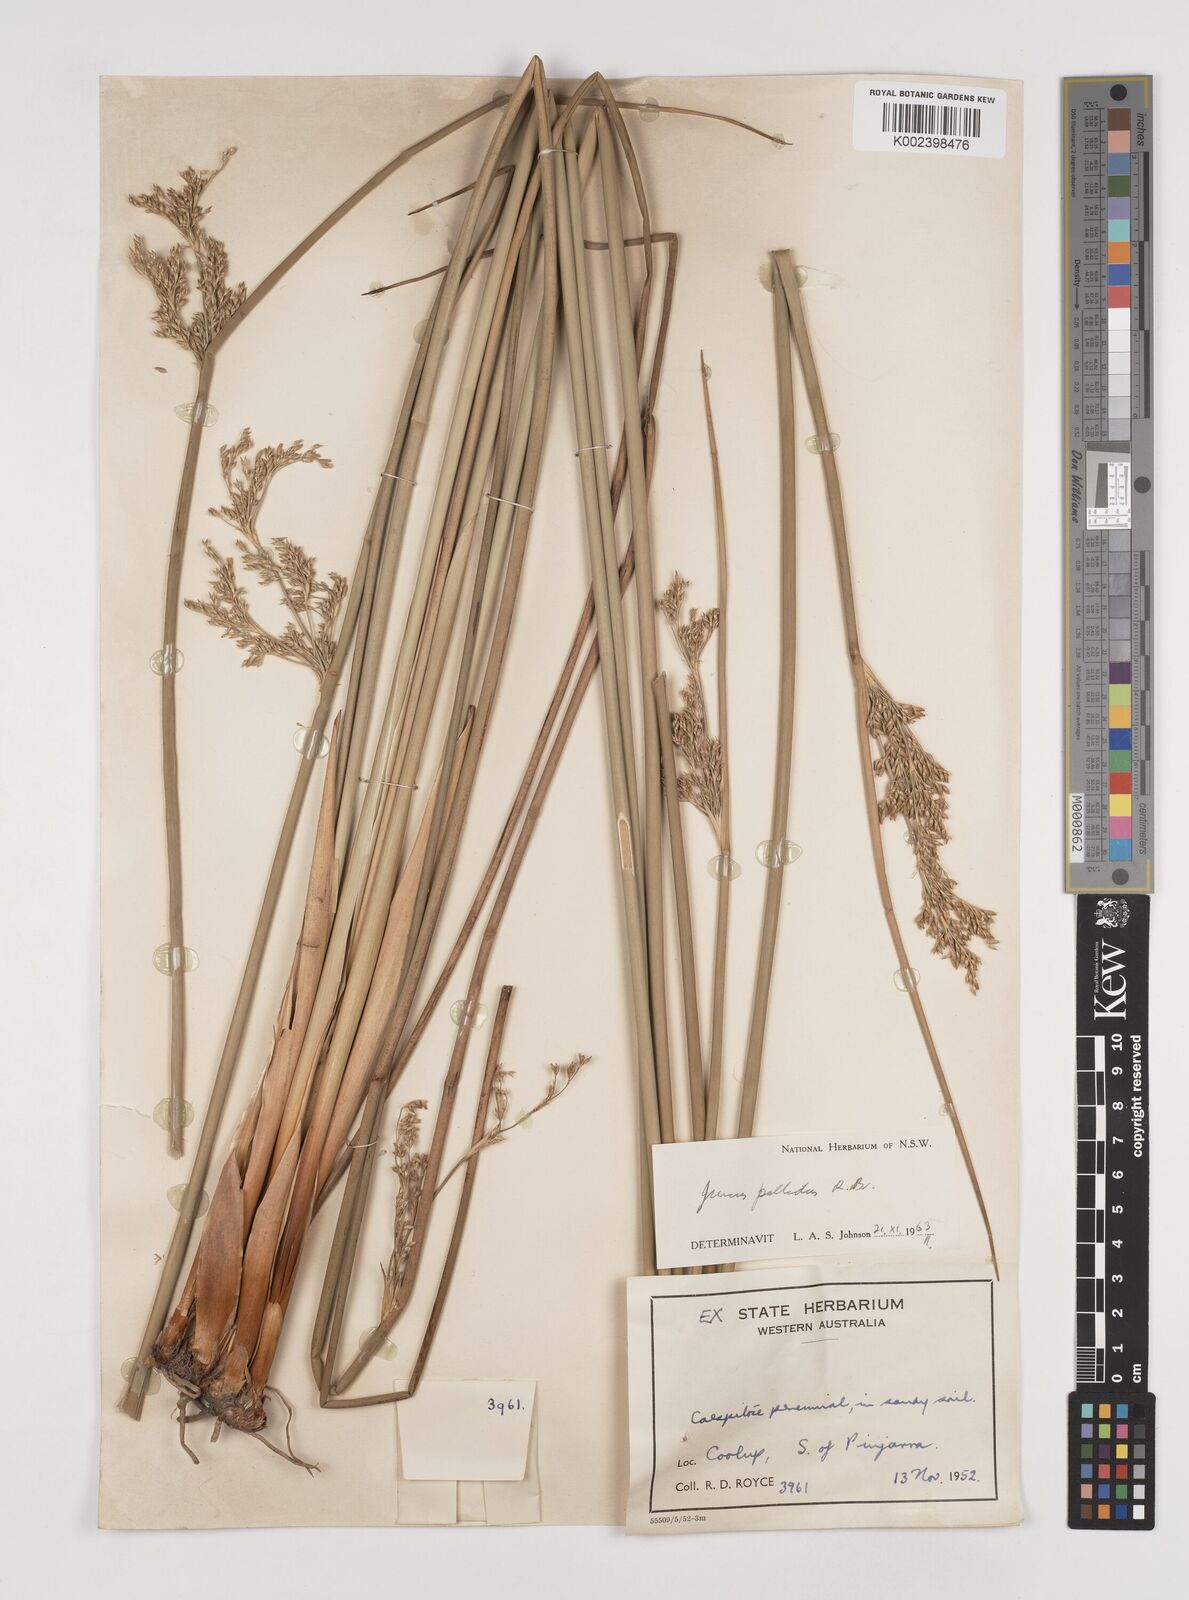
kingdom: Plantae
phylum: Tracheophyta
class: Liliopsida
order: Poales
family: Juncaceae
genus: Juncus
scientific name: Juncus pallidus
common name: Great soft-rush
